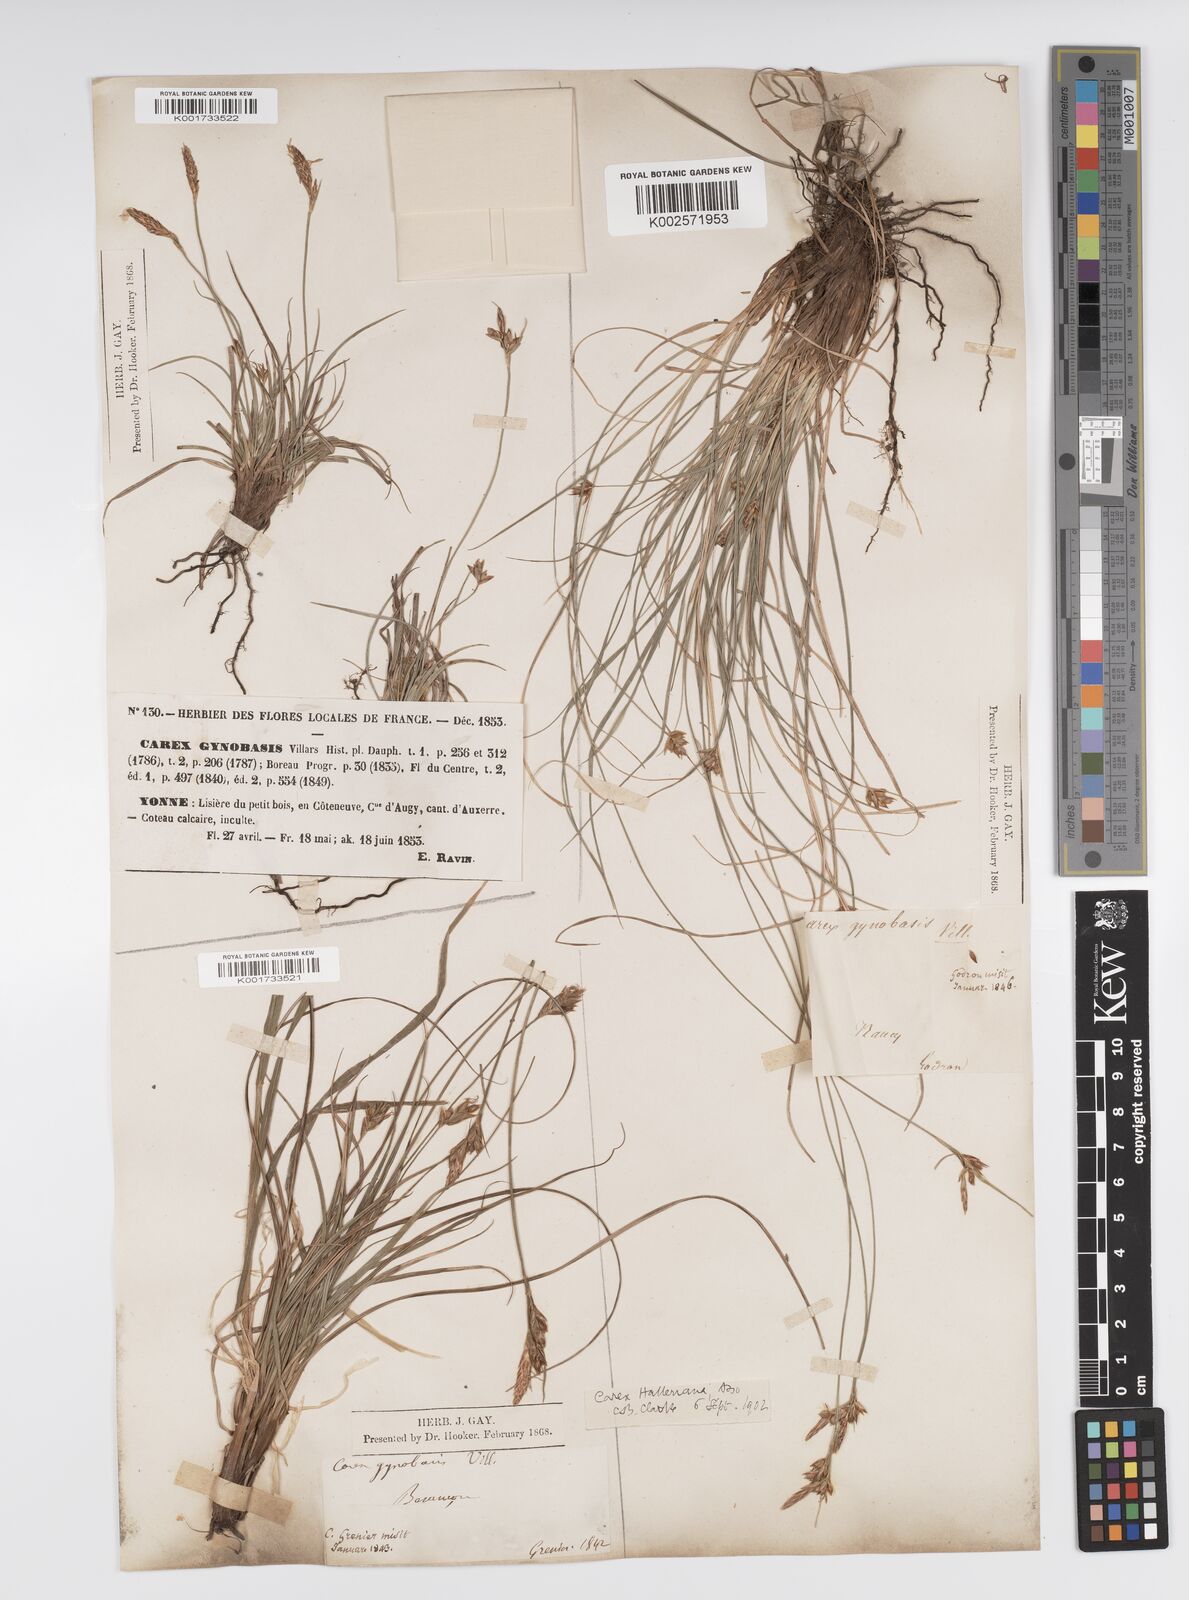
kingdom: Plantae
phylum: Tracheophyta
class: Liliopsida
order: Poales
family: Cyperaceae
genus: Carex
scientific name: Carex halleriana
